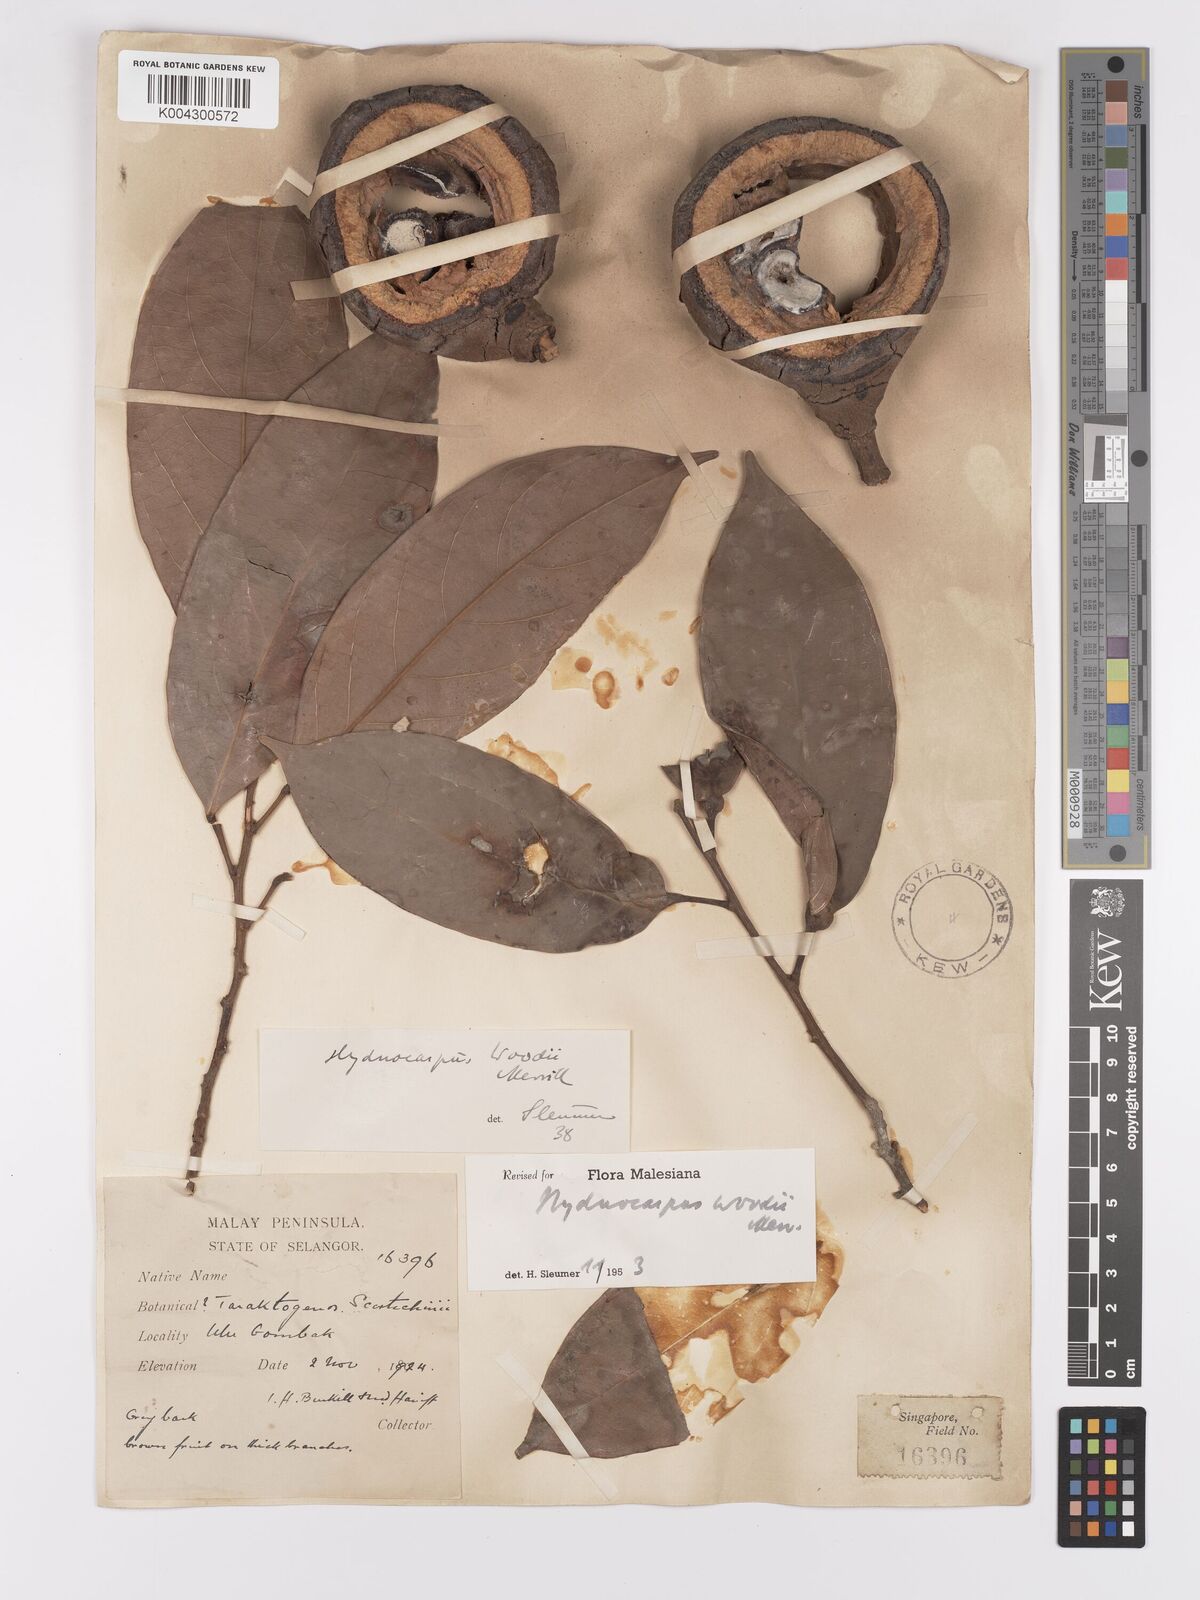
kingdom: Plantae
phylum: Tracheophyta
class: Magnoliopsida
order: Malpighiales
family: Achariaceae
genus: Hydnocarpus
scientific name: Hydnocarpus woodii
